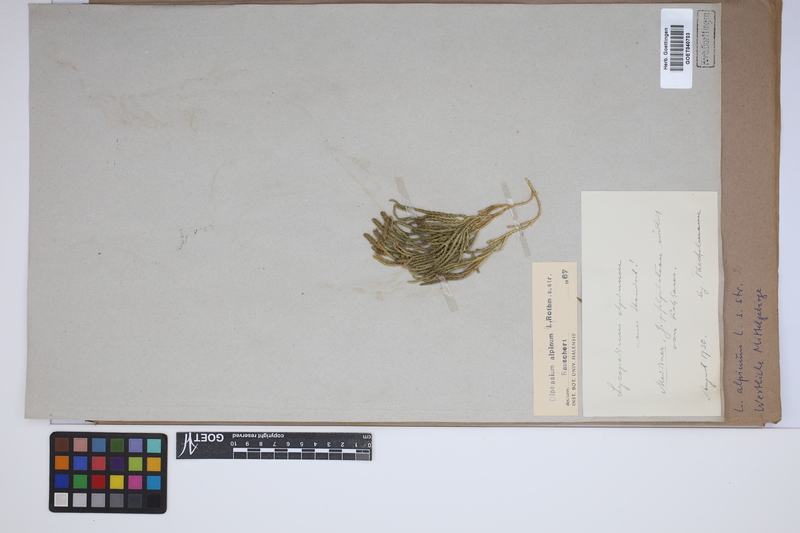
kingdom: Plantae
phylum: Tracheophyta
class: Lycopodiopsida
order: Lycopodiales
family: Lycopodiaceae
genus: Diphasiastrum
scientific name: Diphasiastrum alpinum
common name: Alpine clubmoss
